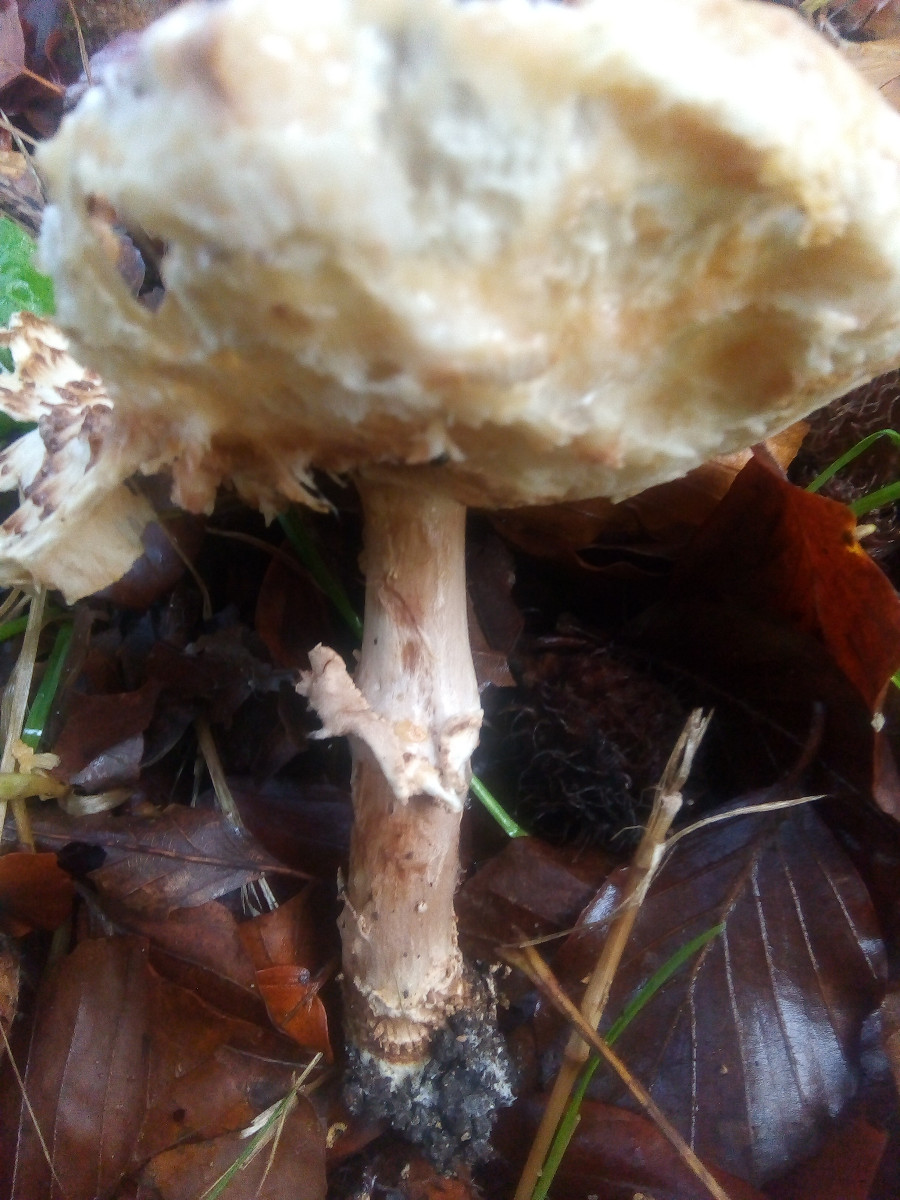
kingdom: Fungi
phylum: Basidiomycota
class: Agaricomycetes
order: Agaricales
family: Agaricaceae
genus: Echinoderma
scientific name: Echinoderma asperum
